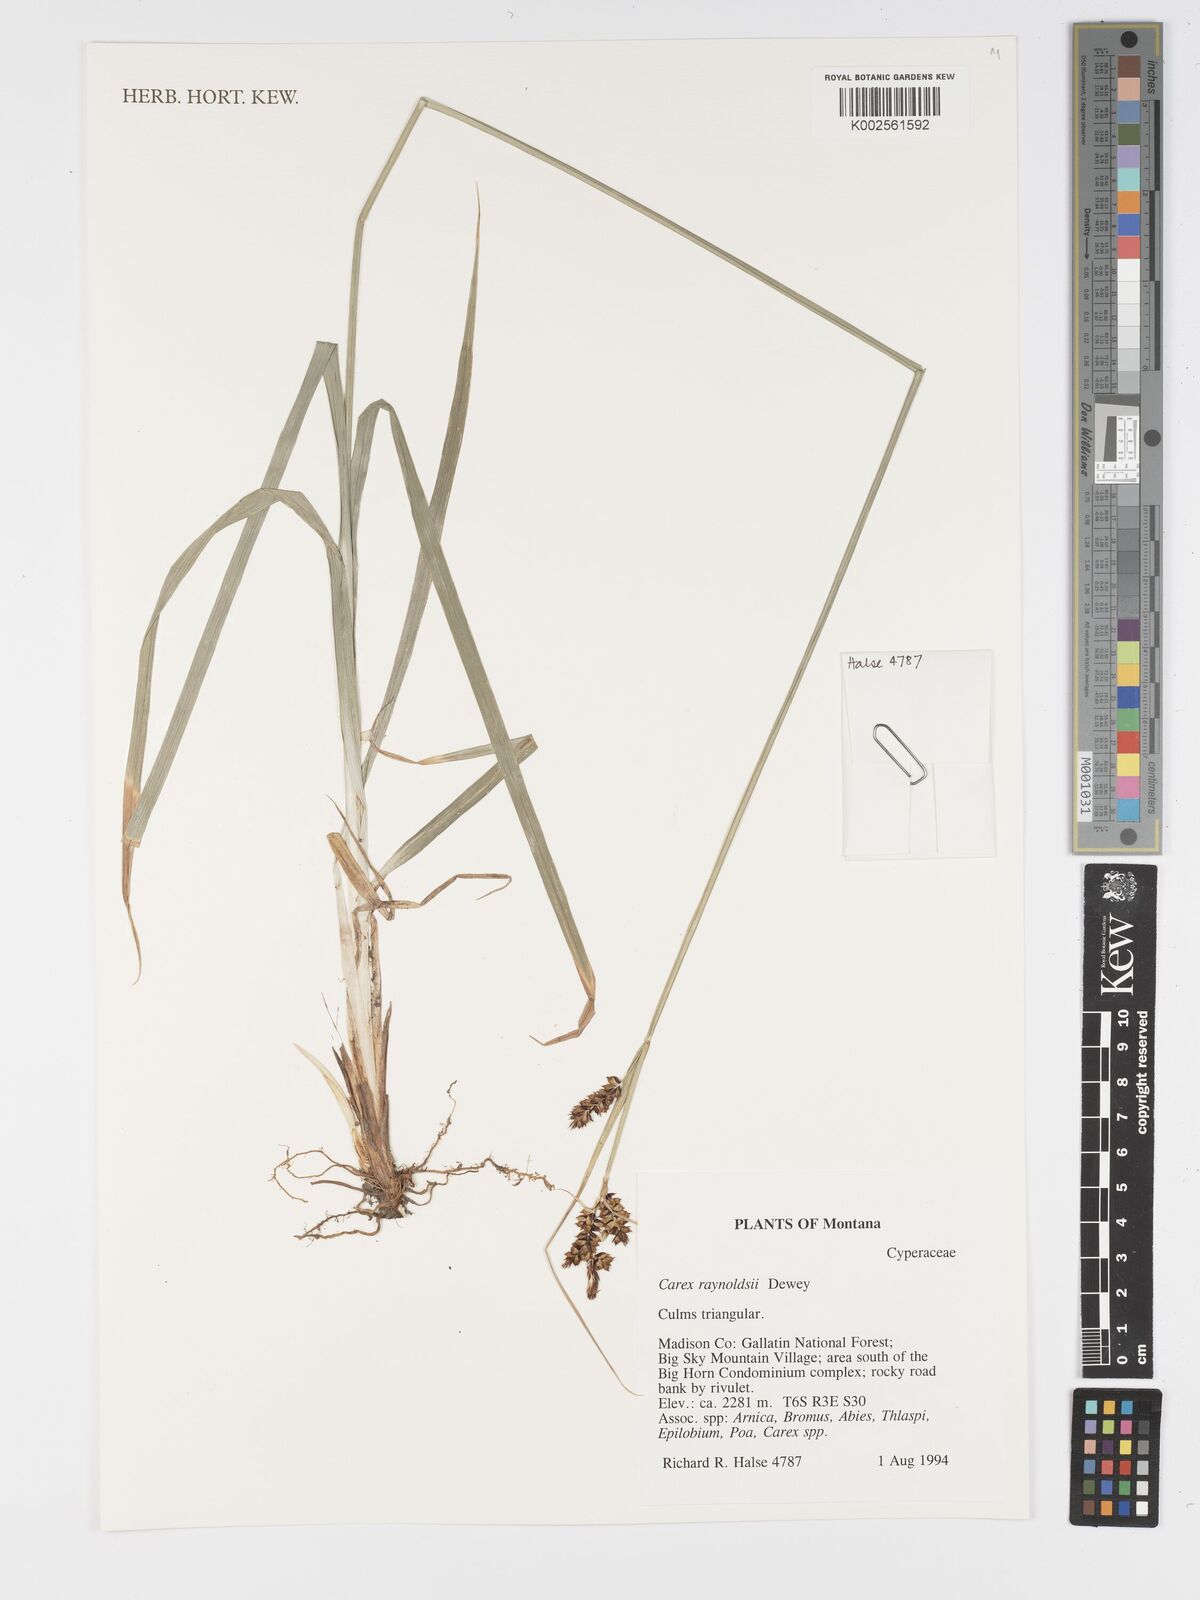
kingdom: Plantae
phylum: Tracheophyta
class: Liliopsida
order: Poales
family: Cyperaceae
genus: Carex
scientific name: Carex raynoldsii
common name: Raynolds' sedge
